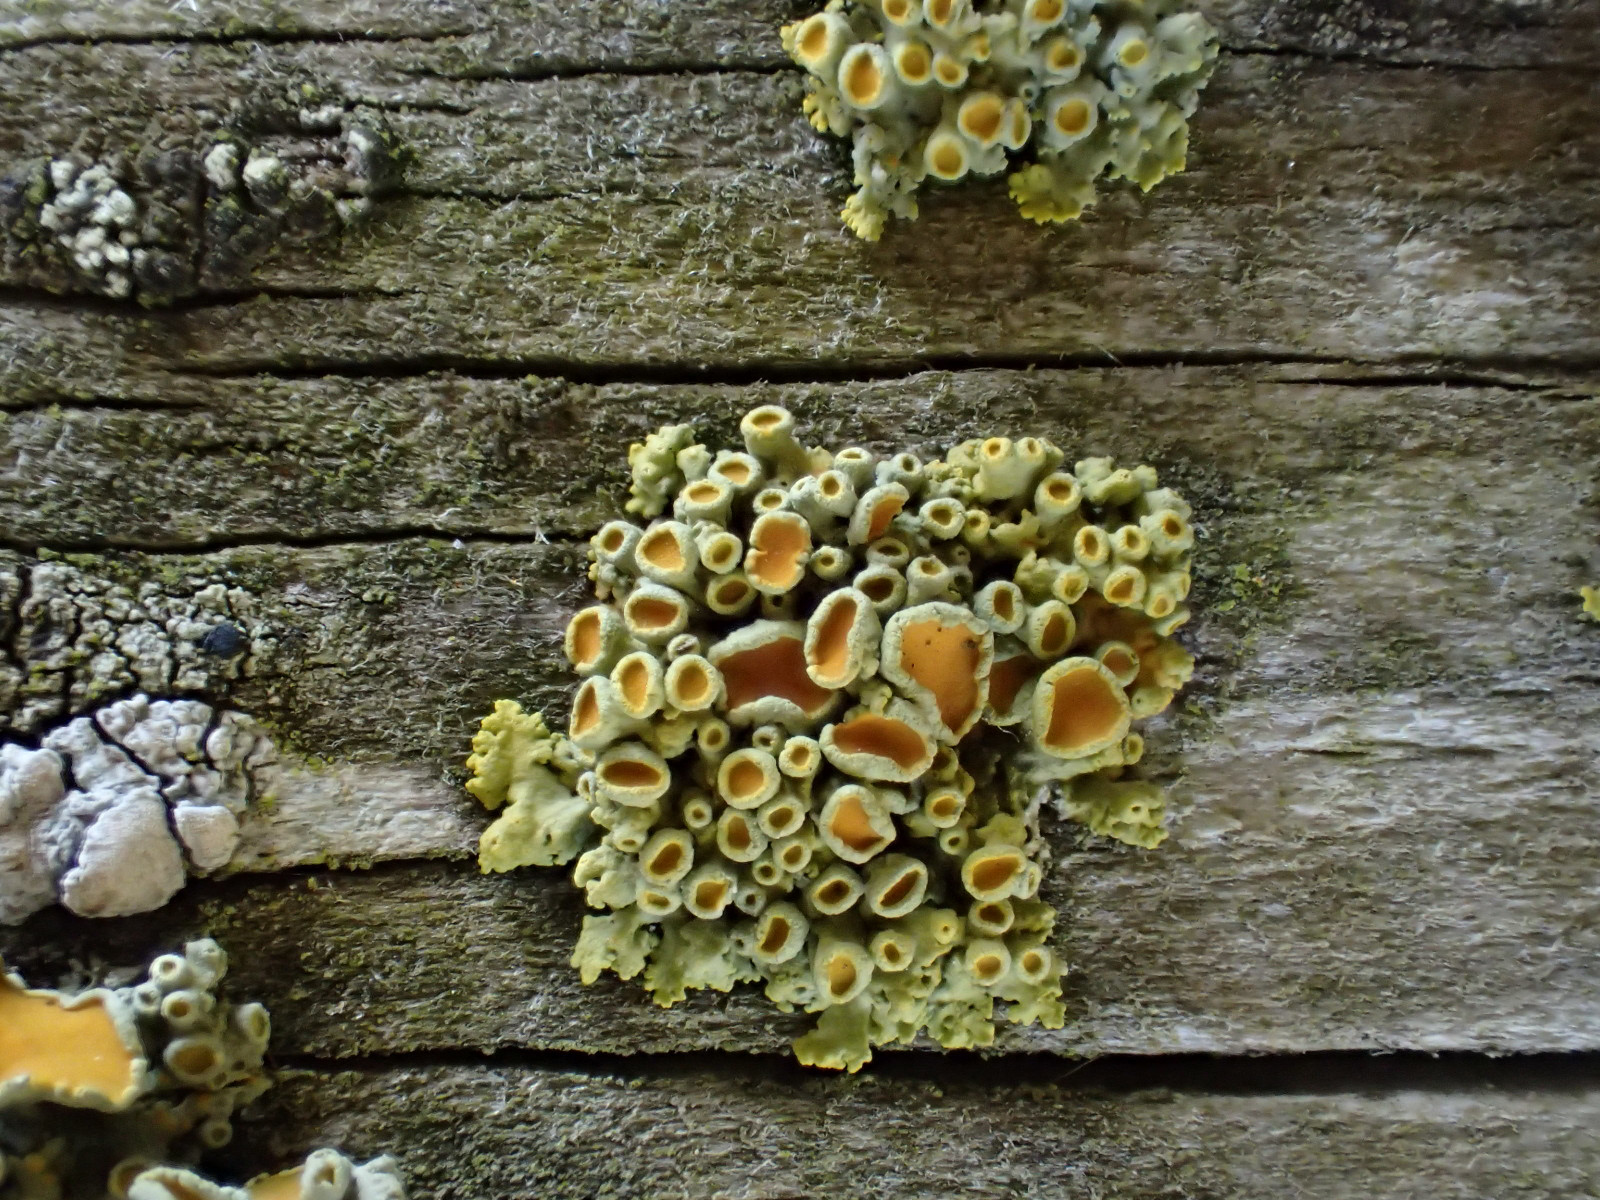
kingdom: Fungi
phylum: Ascomycota
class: Lecanoromycetes
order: Teloschistales
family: Teloschistaceae
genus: Polycauliona
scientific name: Polycauliona polycarpa
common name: mangefrugtet orangelav
